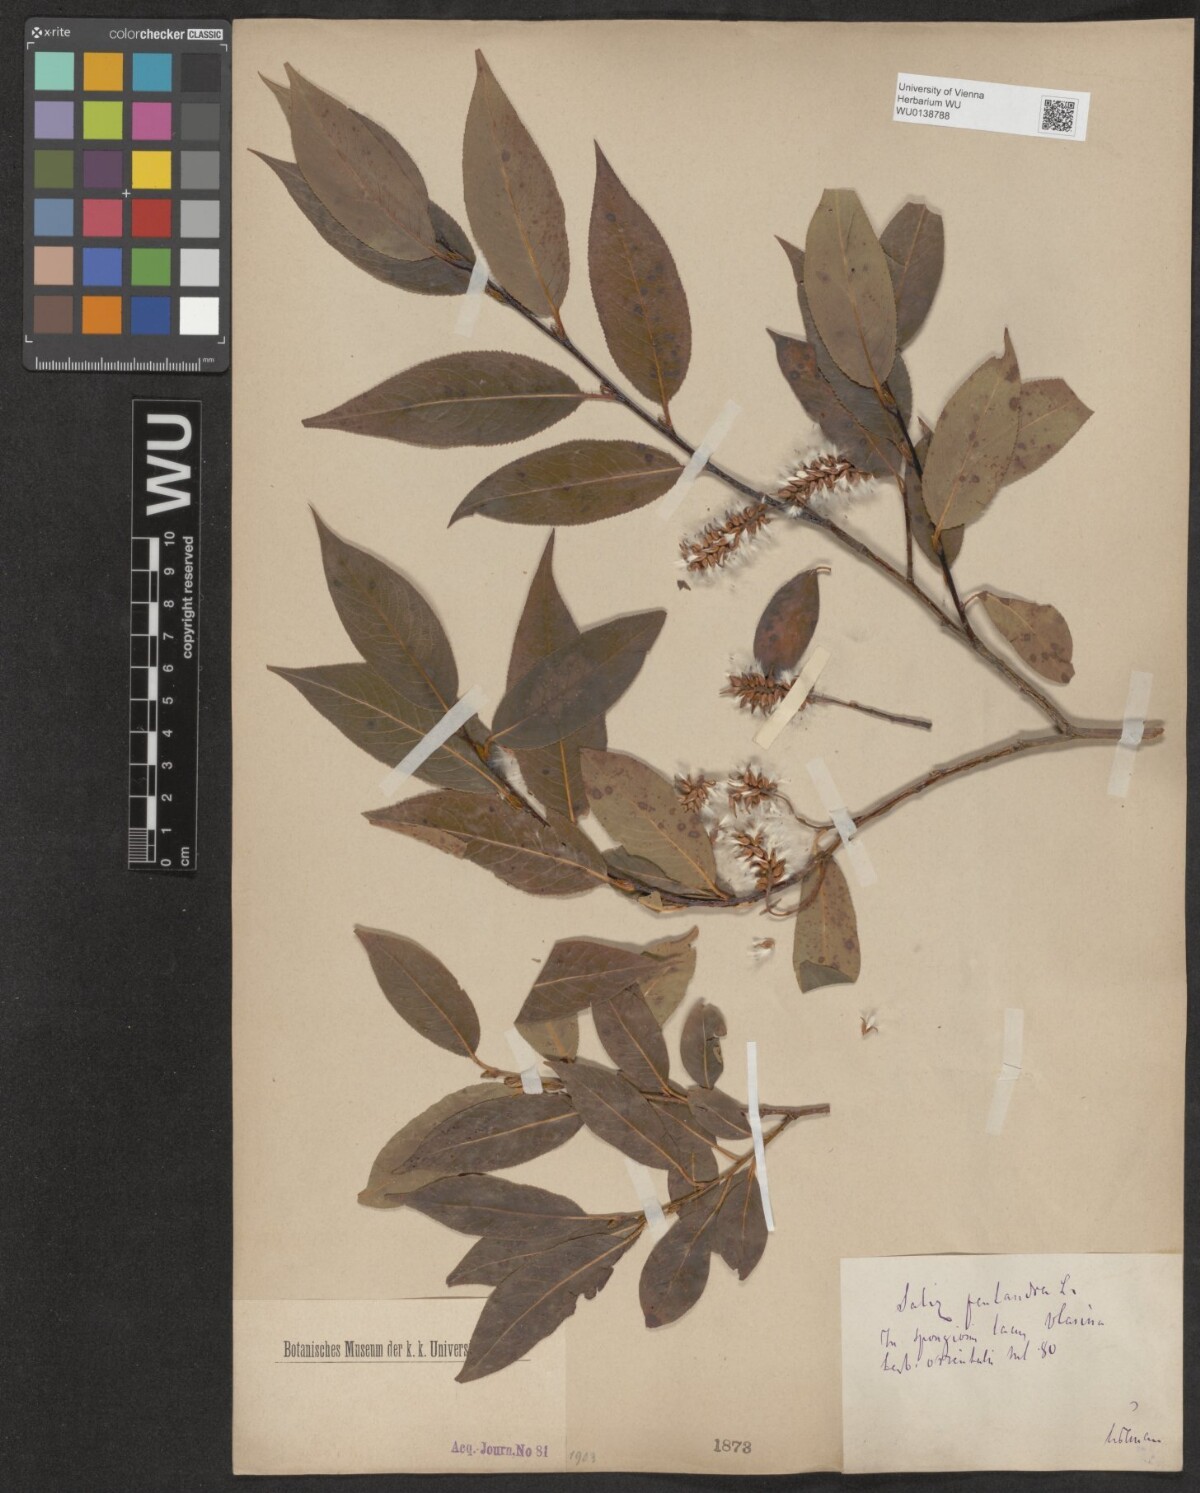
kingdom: Plantae
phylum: Tracheophyta
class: Magnoliopsida
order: Malpighiales
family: Salicaceae
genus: Salix
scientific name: Salix pentandra
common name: Bay willow
